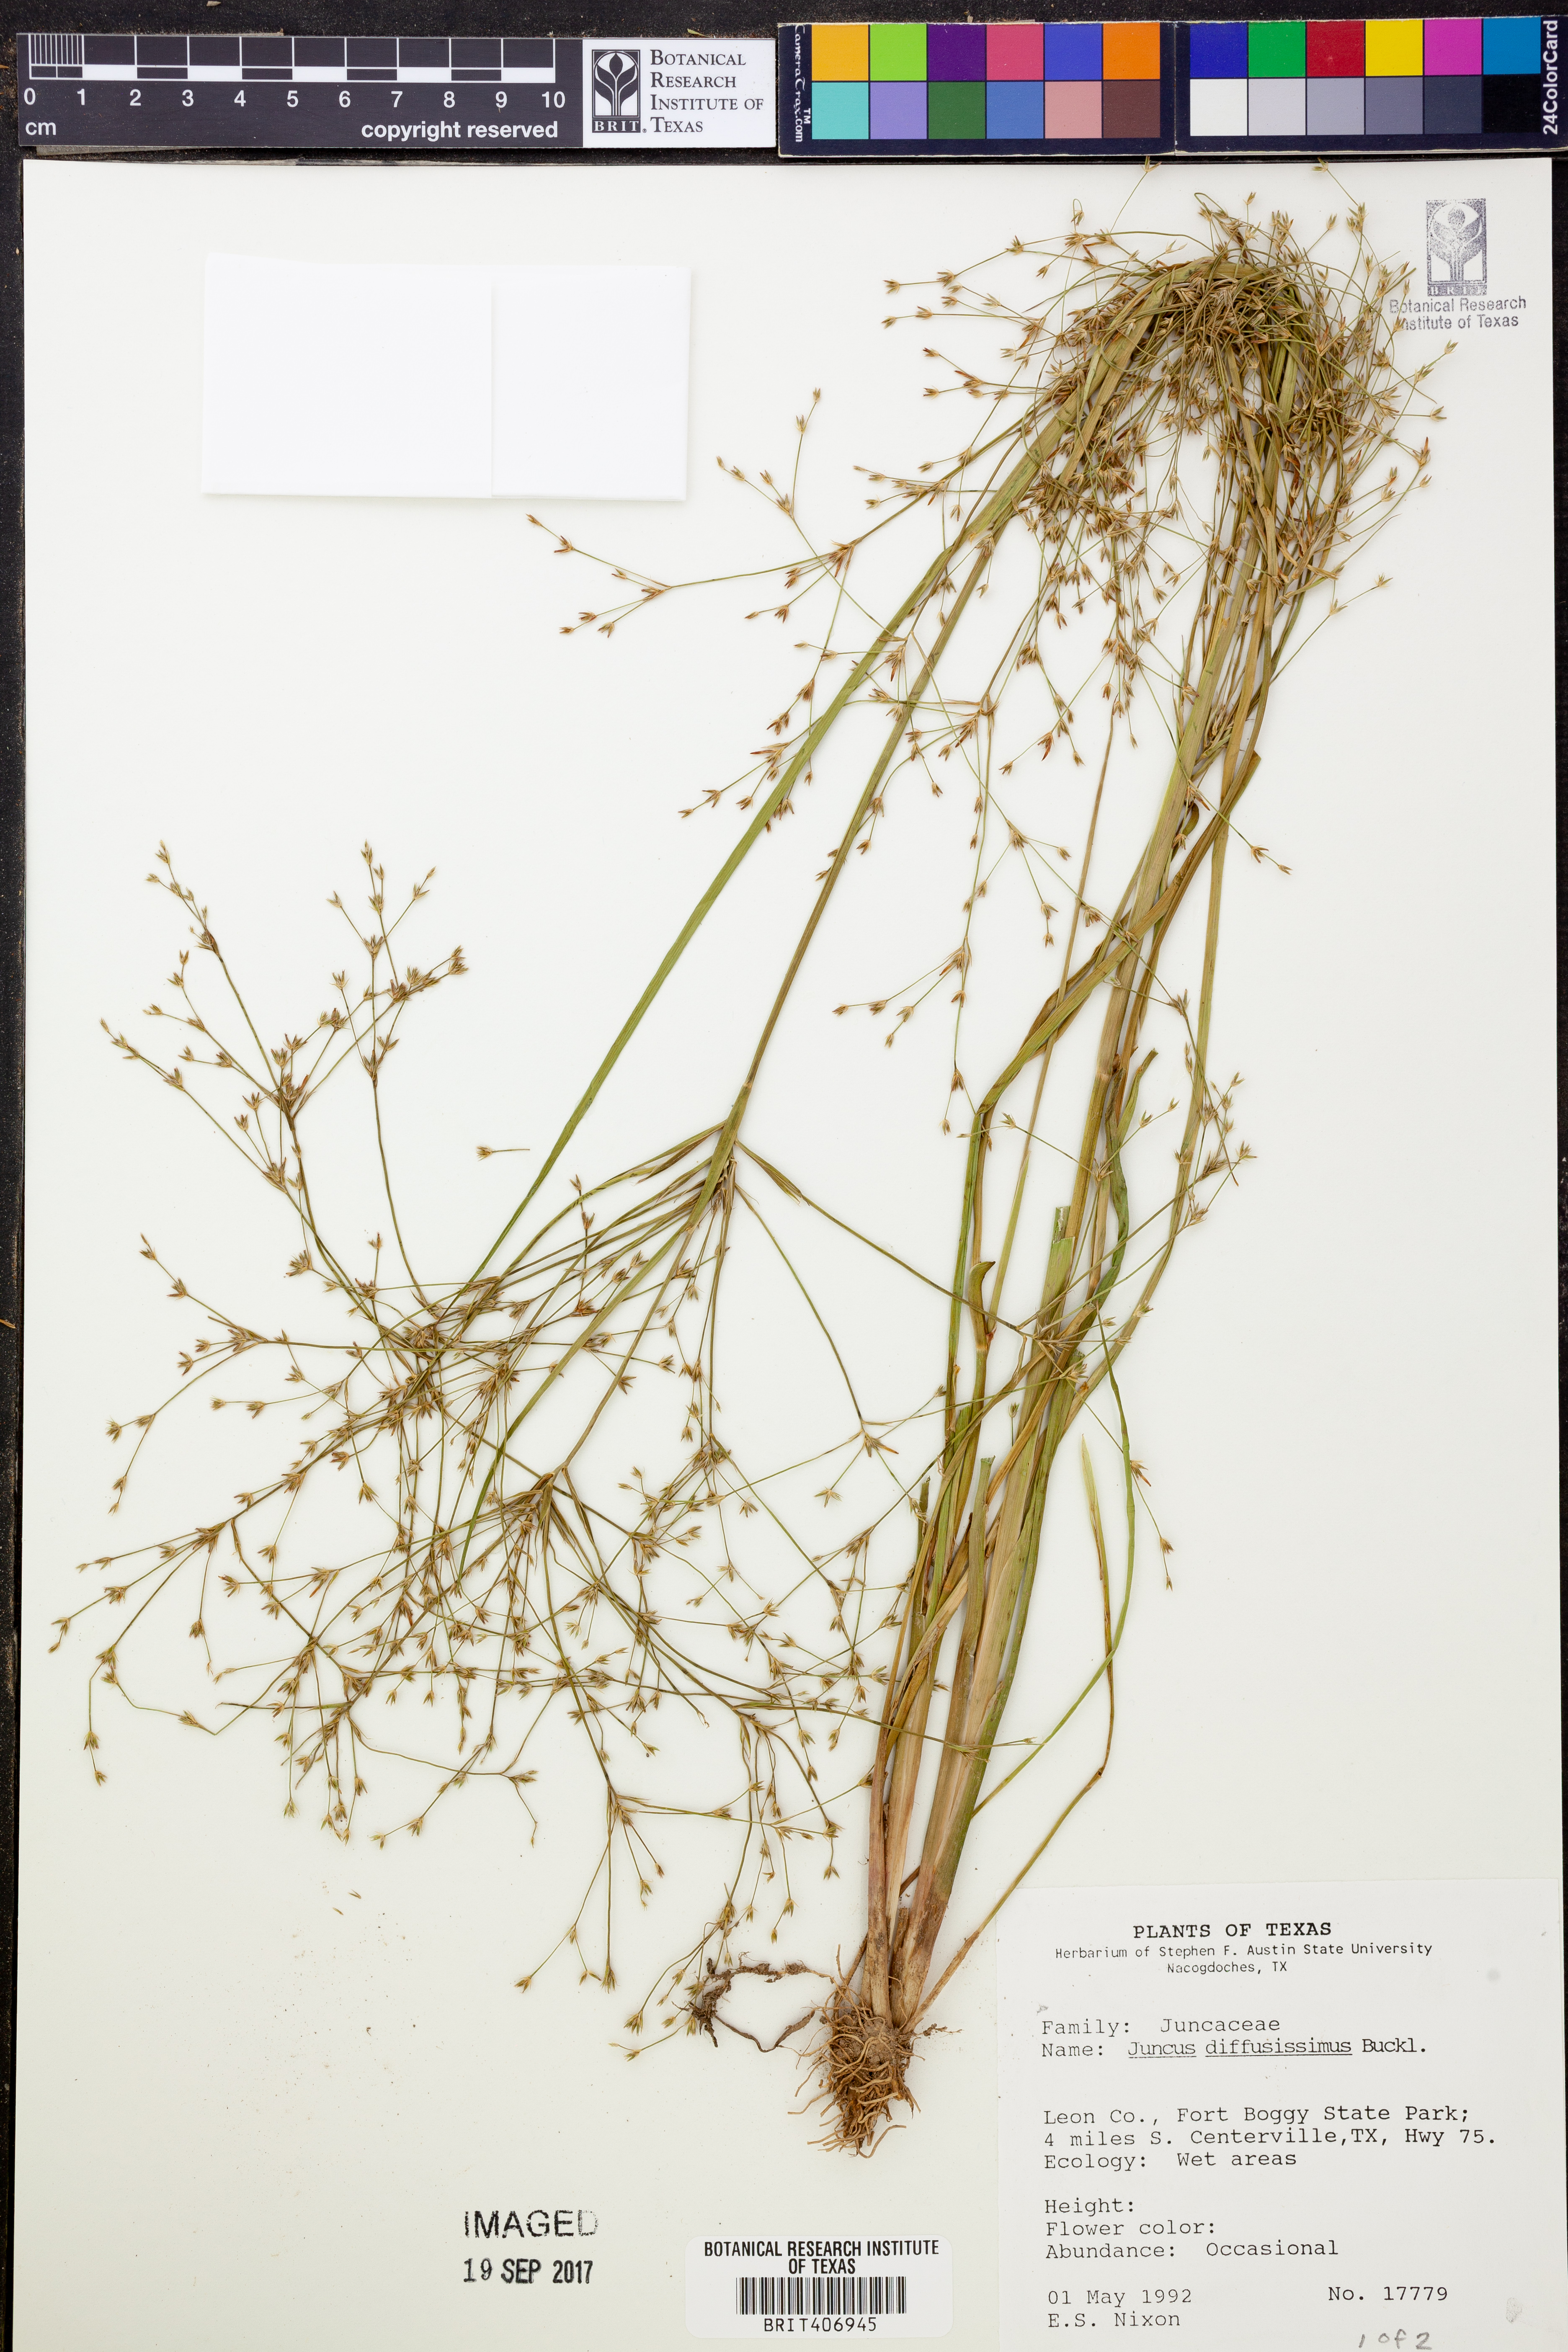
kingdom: Plantae
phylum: Tracheophyta
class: Liliopsida
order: Poales
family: Juncaceae
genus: Juncus
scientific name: Juncus diffusissimus
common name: Slimpod rush
